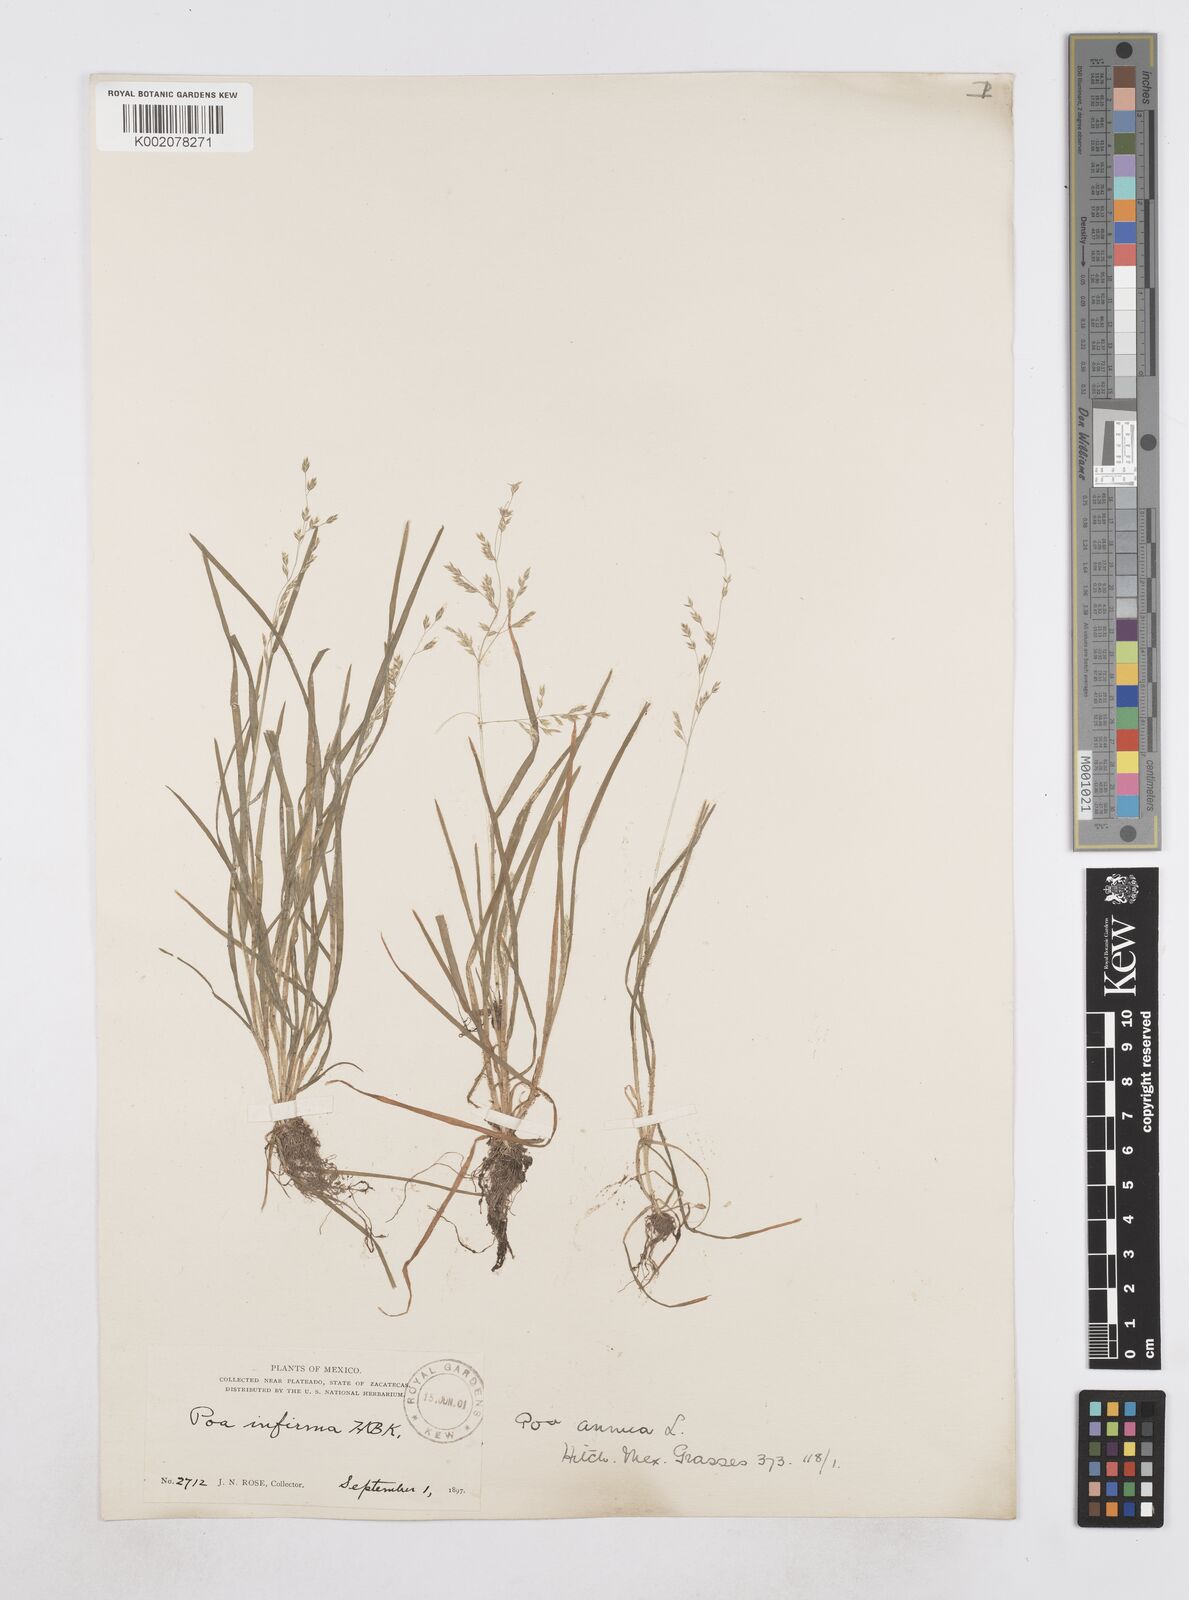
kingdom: Plantae
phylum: Tracheophyta
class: Liliopsida
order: Poales
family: Poaceae
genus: Poa
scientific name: Poa annua
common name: Annual bluegrass
